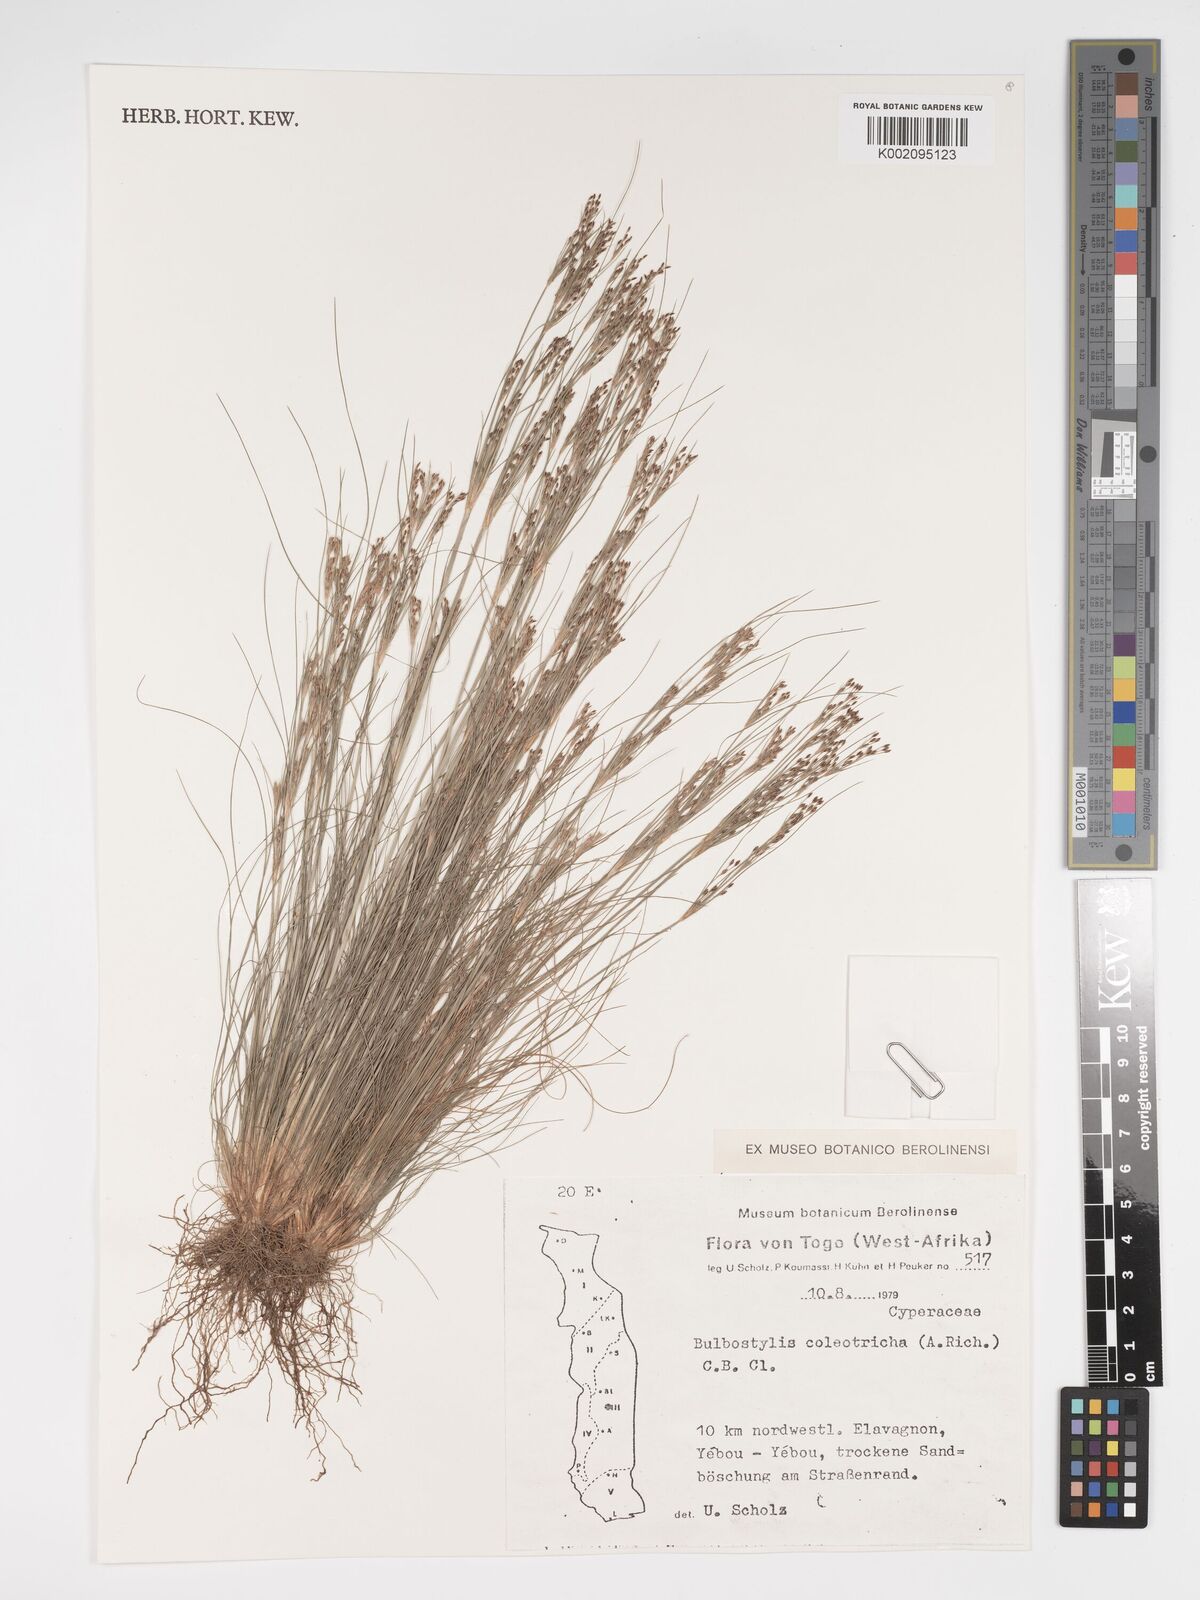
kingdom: Plantae
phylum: Tracheophyta
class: Liliopsida
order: Poales
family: Cyperaceae
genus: Bulbostylis
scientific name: Bulbostylis coleotricha
